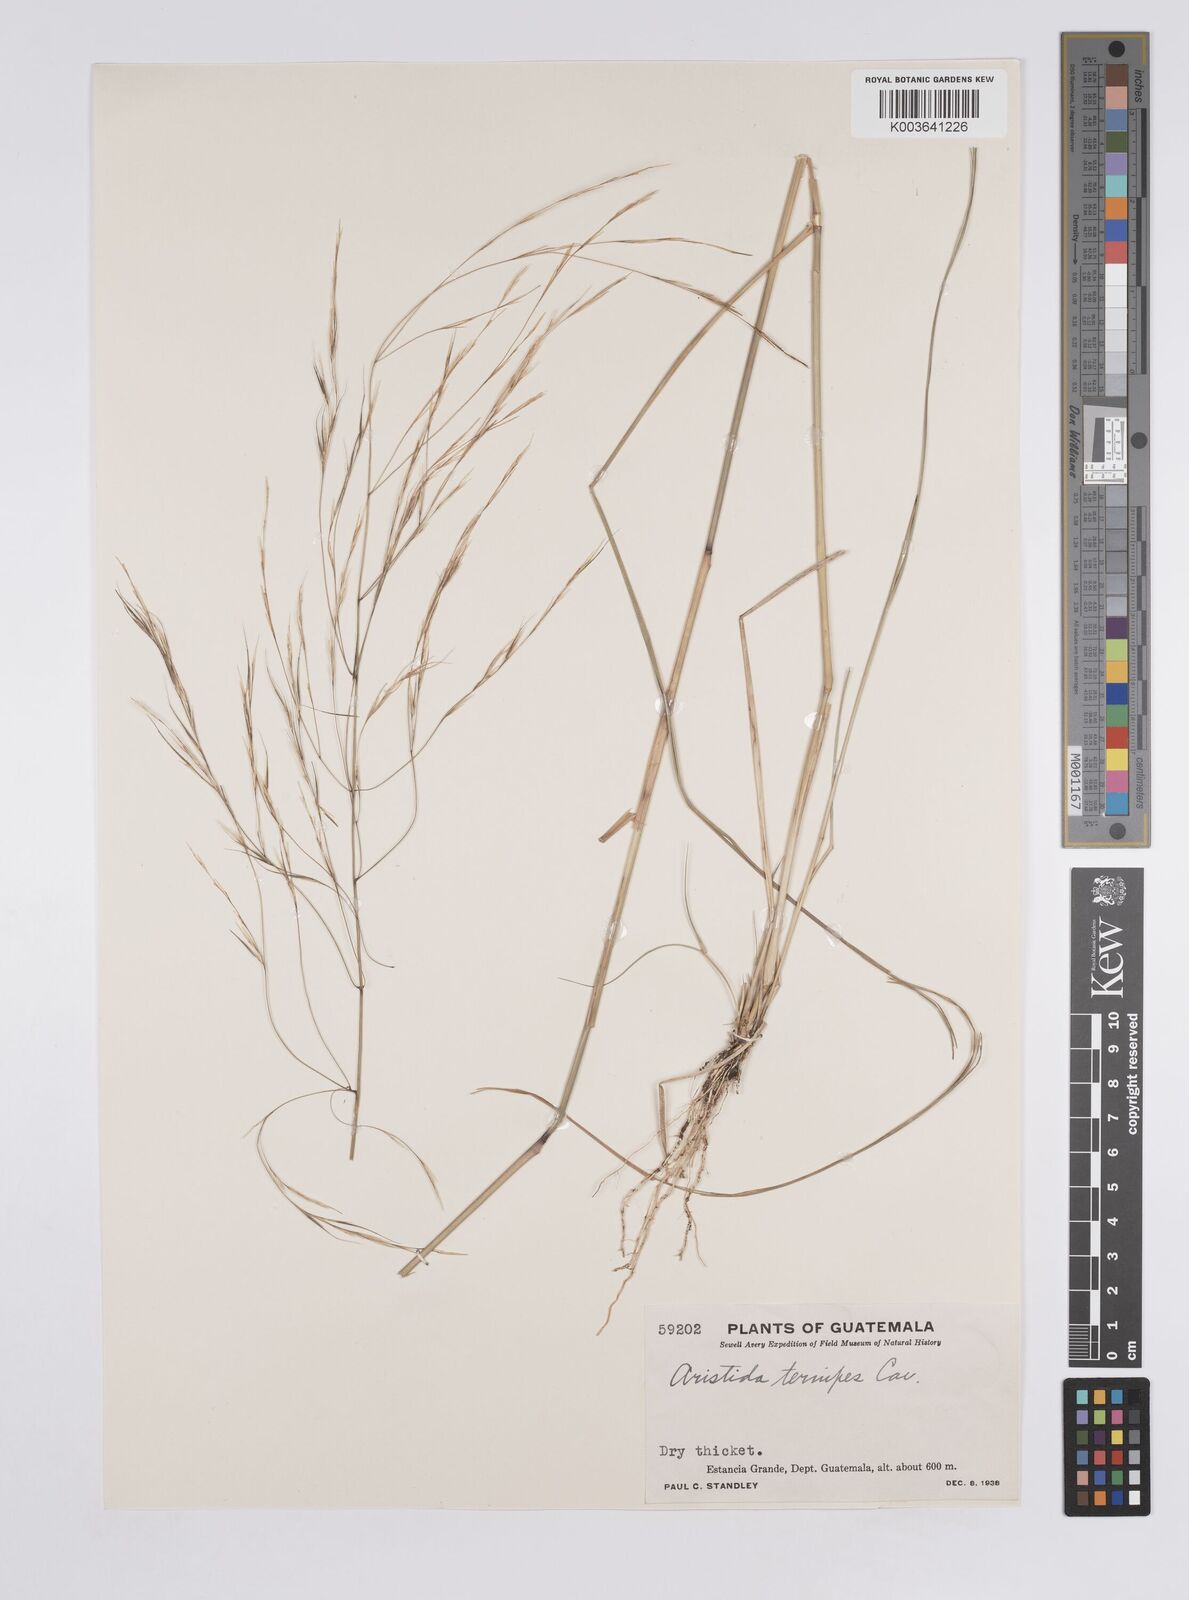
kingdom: Plantae
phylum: Tracheophyta
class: Liliopsida
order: Poales
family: Poaceae
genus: Aristida
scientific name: Aristida
